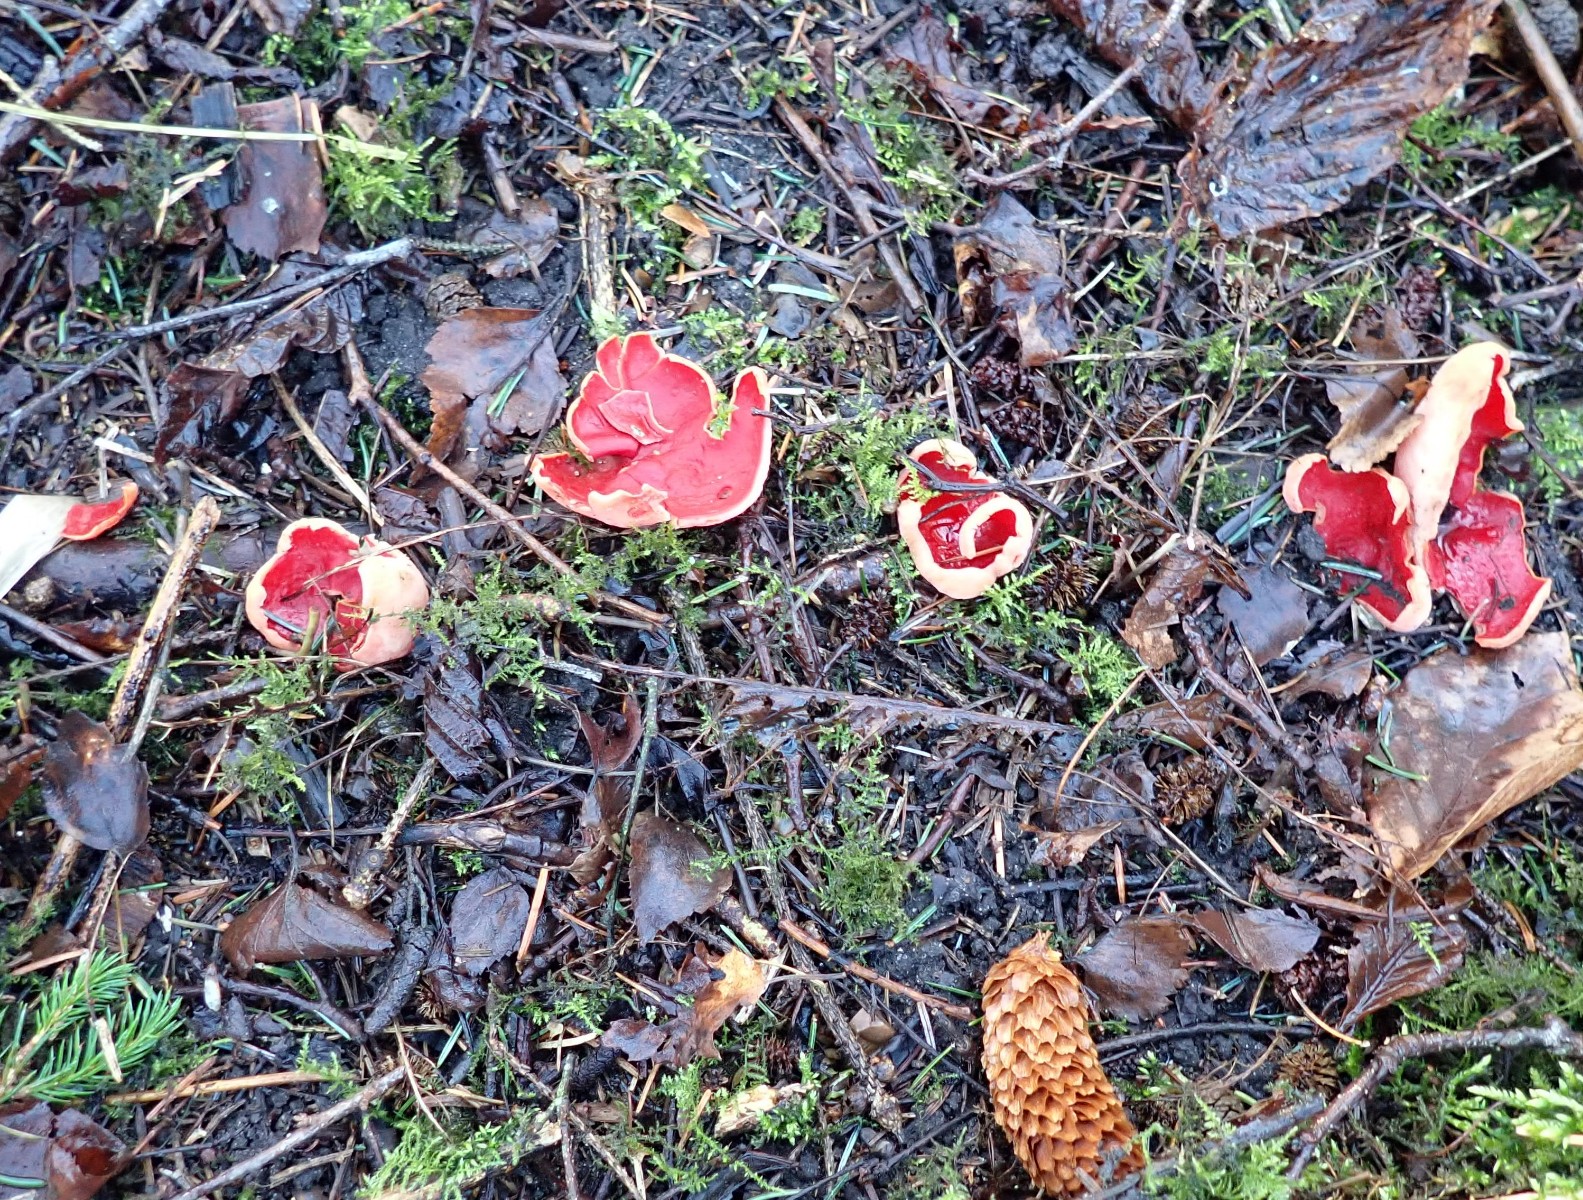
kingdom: Fungi
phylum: Ascomycota
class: Pezizomycetes
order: Pezizales
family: Sarcoscyphaceae
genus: Sarcoscypha
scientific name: Sarcoscypha austriaca
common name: krølhåret pragtbæger
